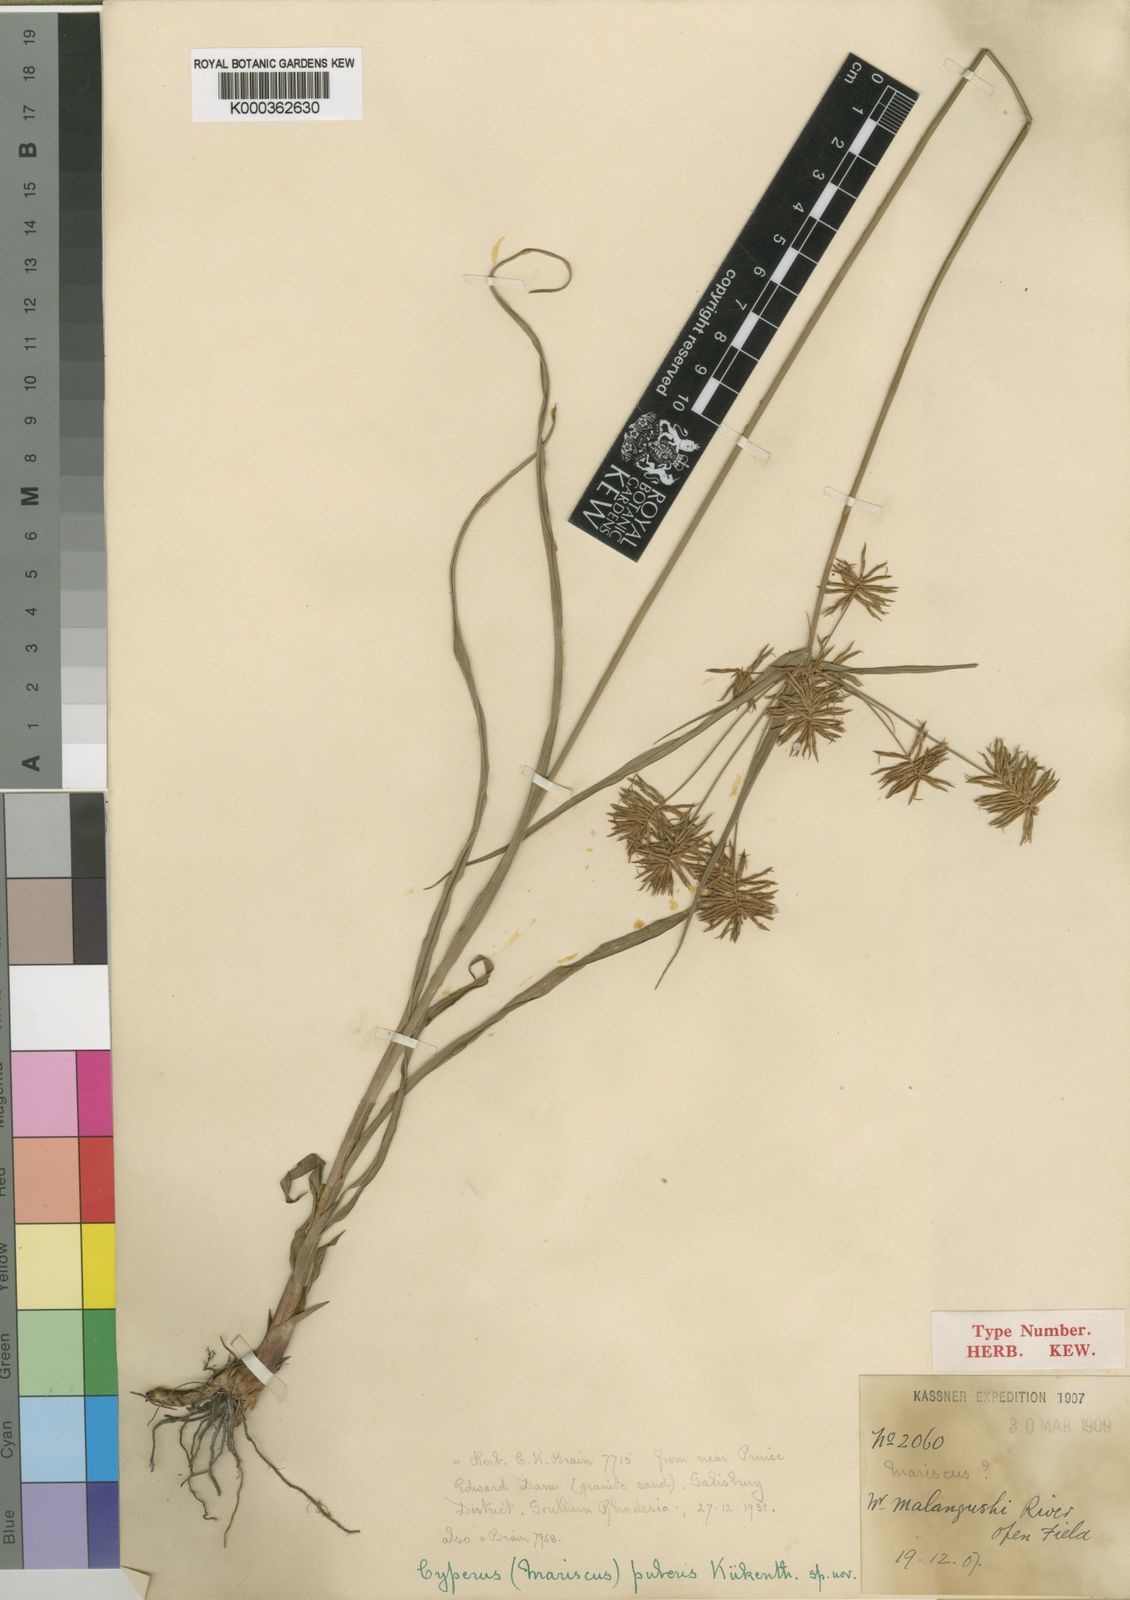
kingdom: Plantae
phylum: Tracheophyta
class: Liliopsida
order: Poales
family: Cyperaceae
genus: Cyperus
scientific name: Cyperus
